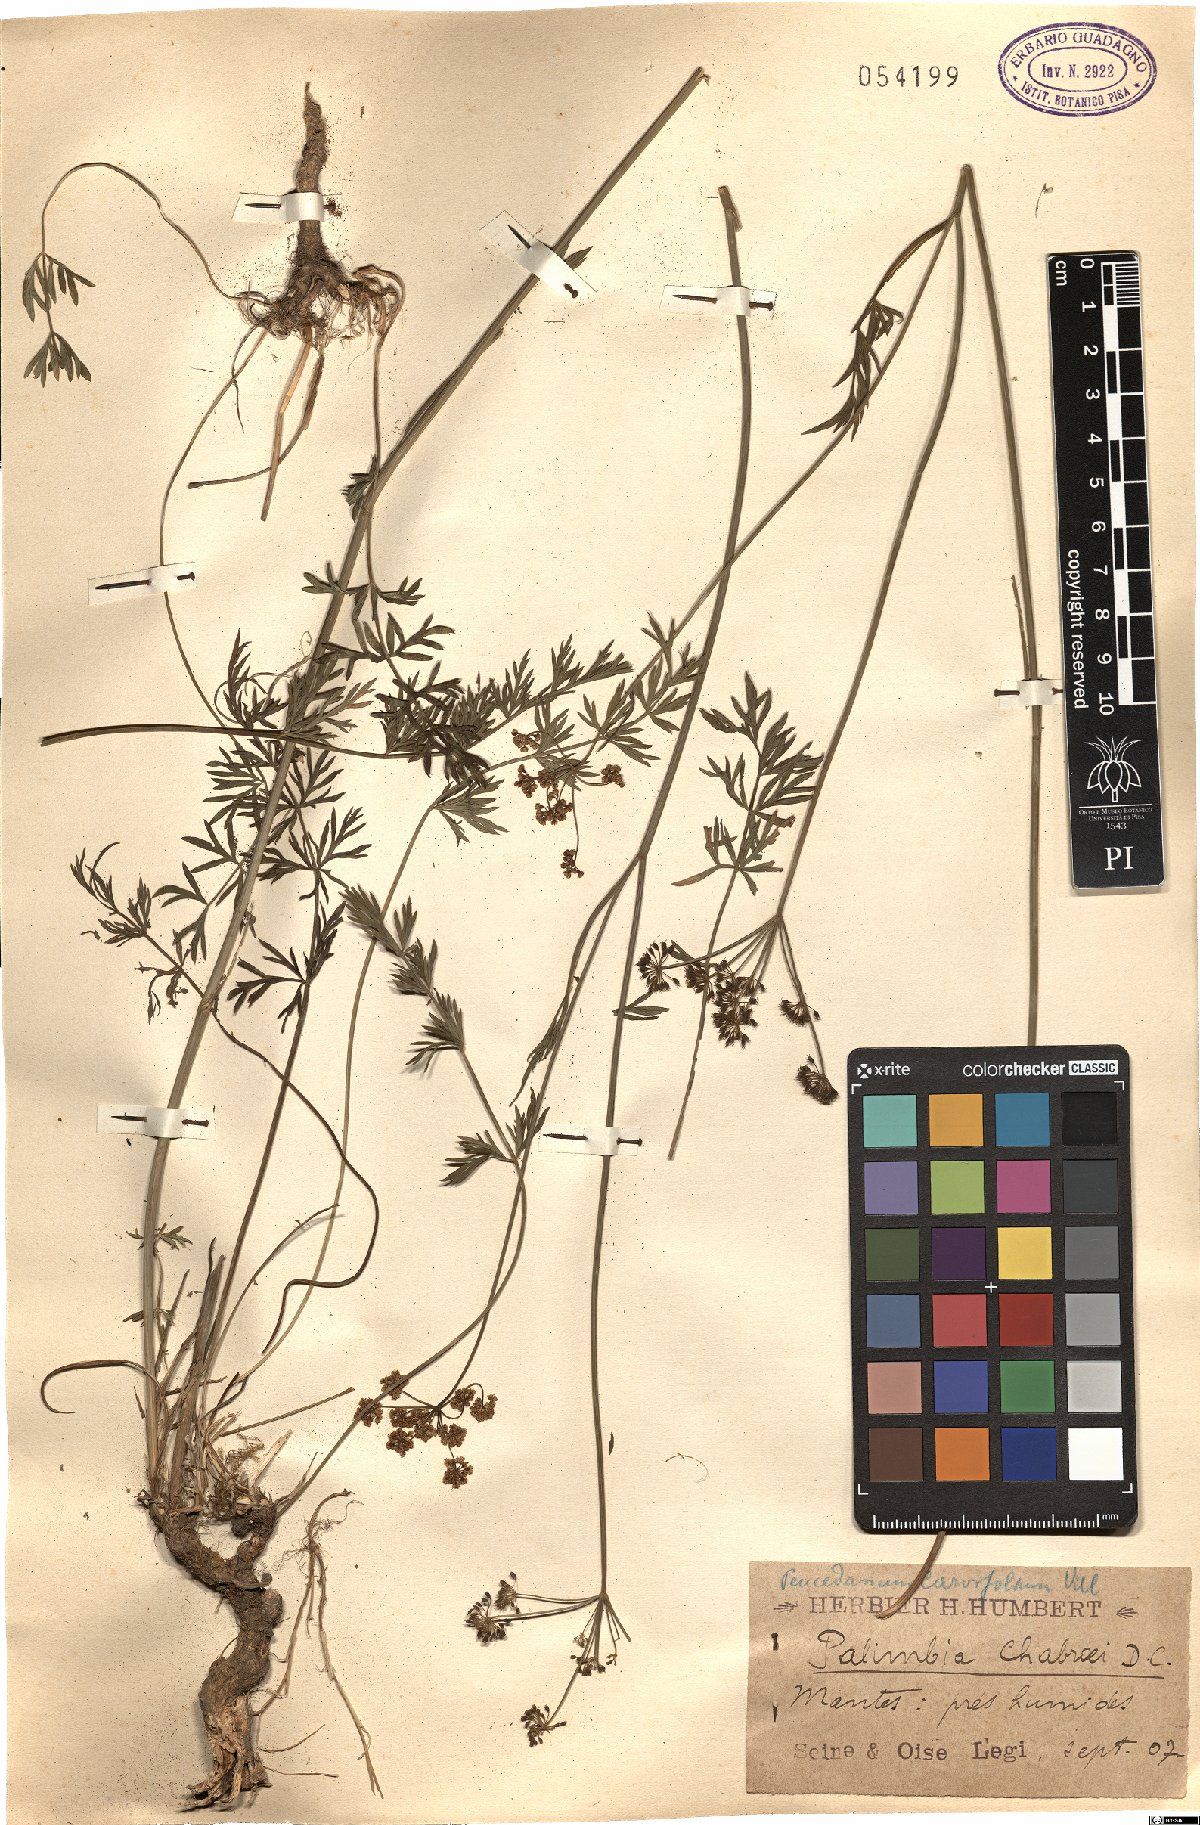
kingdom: Plantae
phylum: Tracheophyta
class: Magnoliopsida
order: Apiales
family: Apiaceae
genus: Dichoropetalum
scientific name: Dichoropetalum carvifolia
